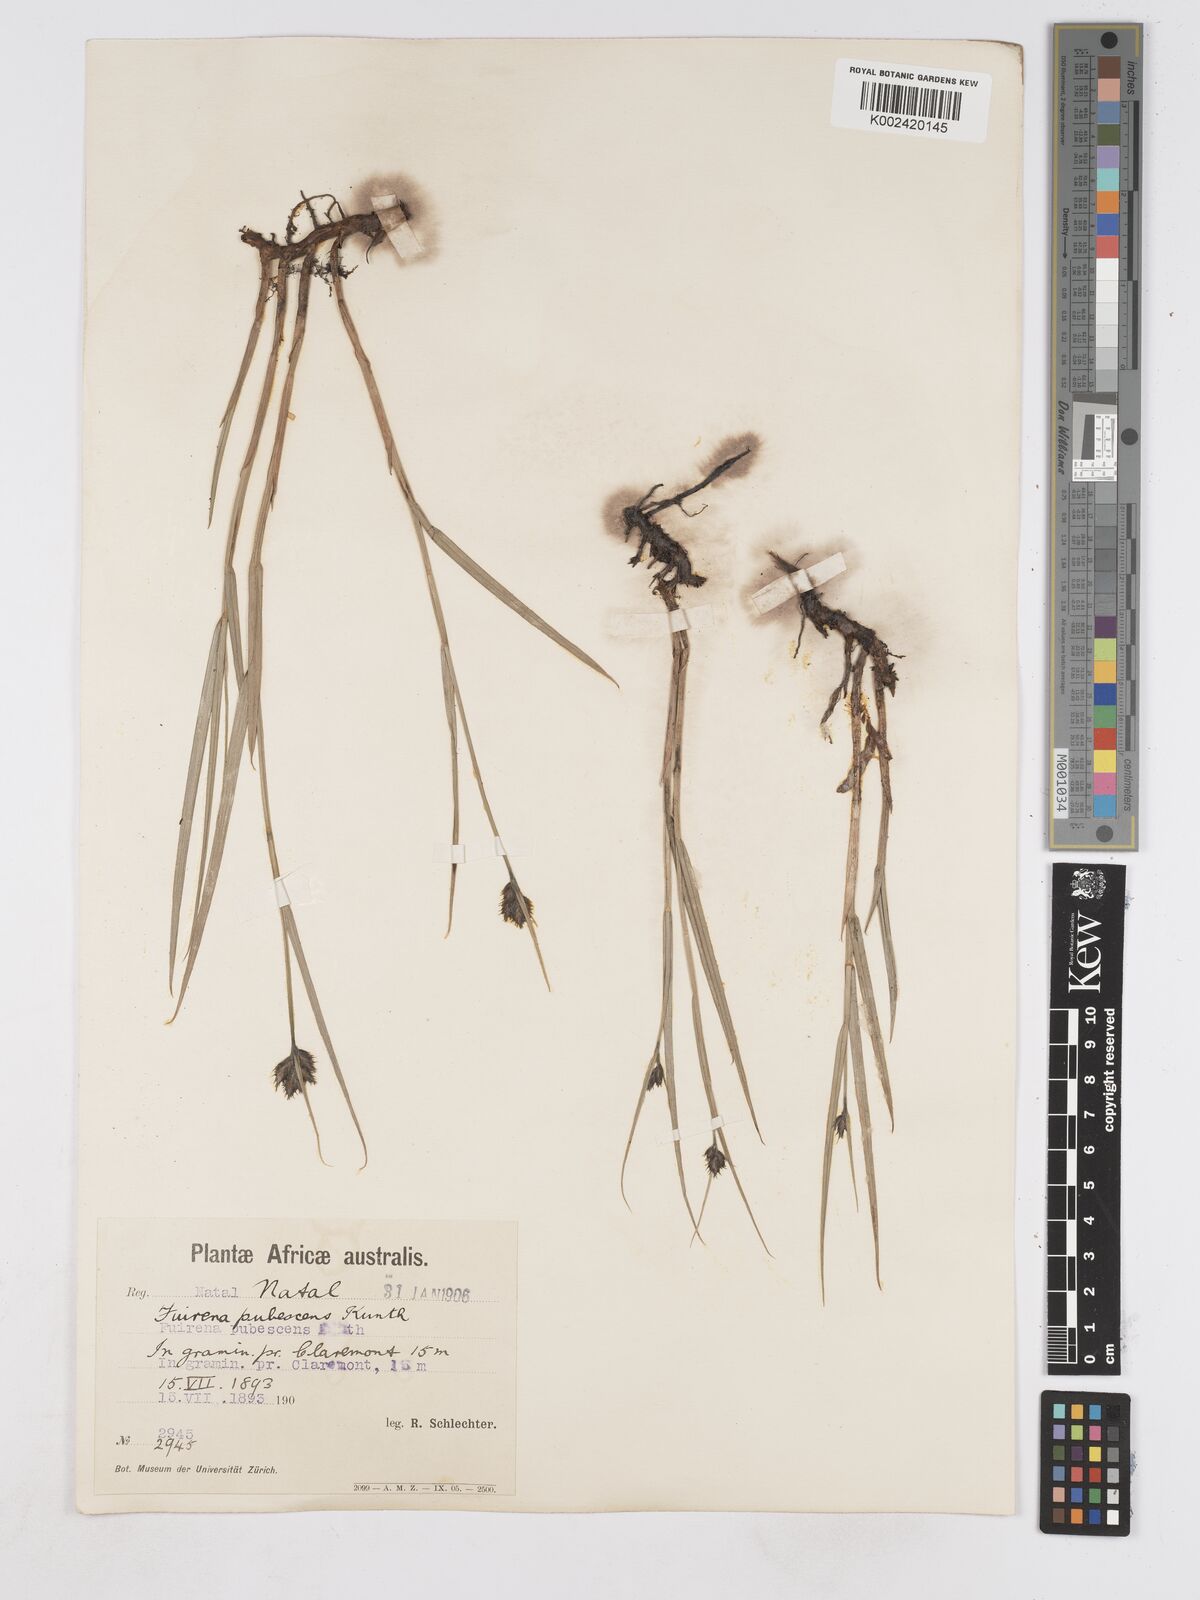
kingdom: Plantae
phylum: Tracheophyta
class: Liliopsida
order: Poales
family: Cyperaceae
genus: Fuirena
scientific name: Fuirena pubescens
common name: Hairy sedge
